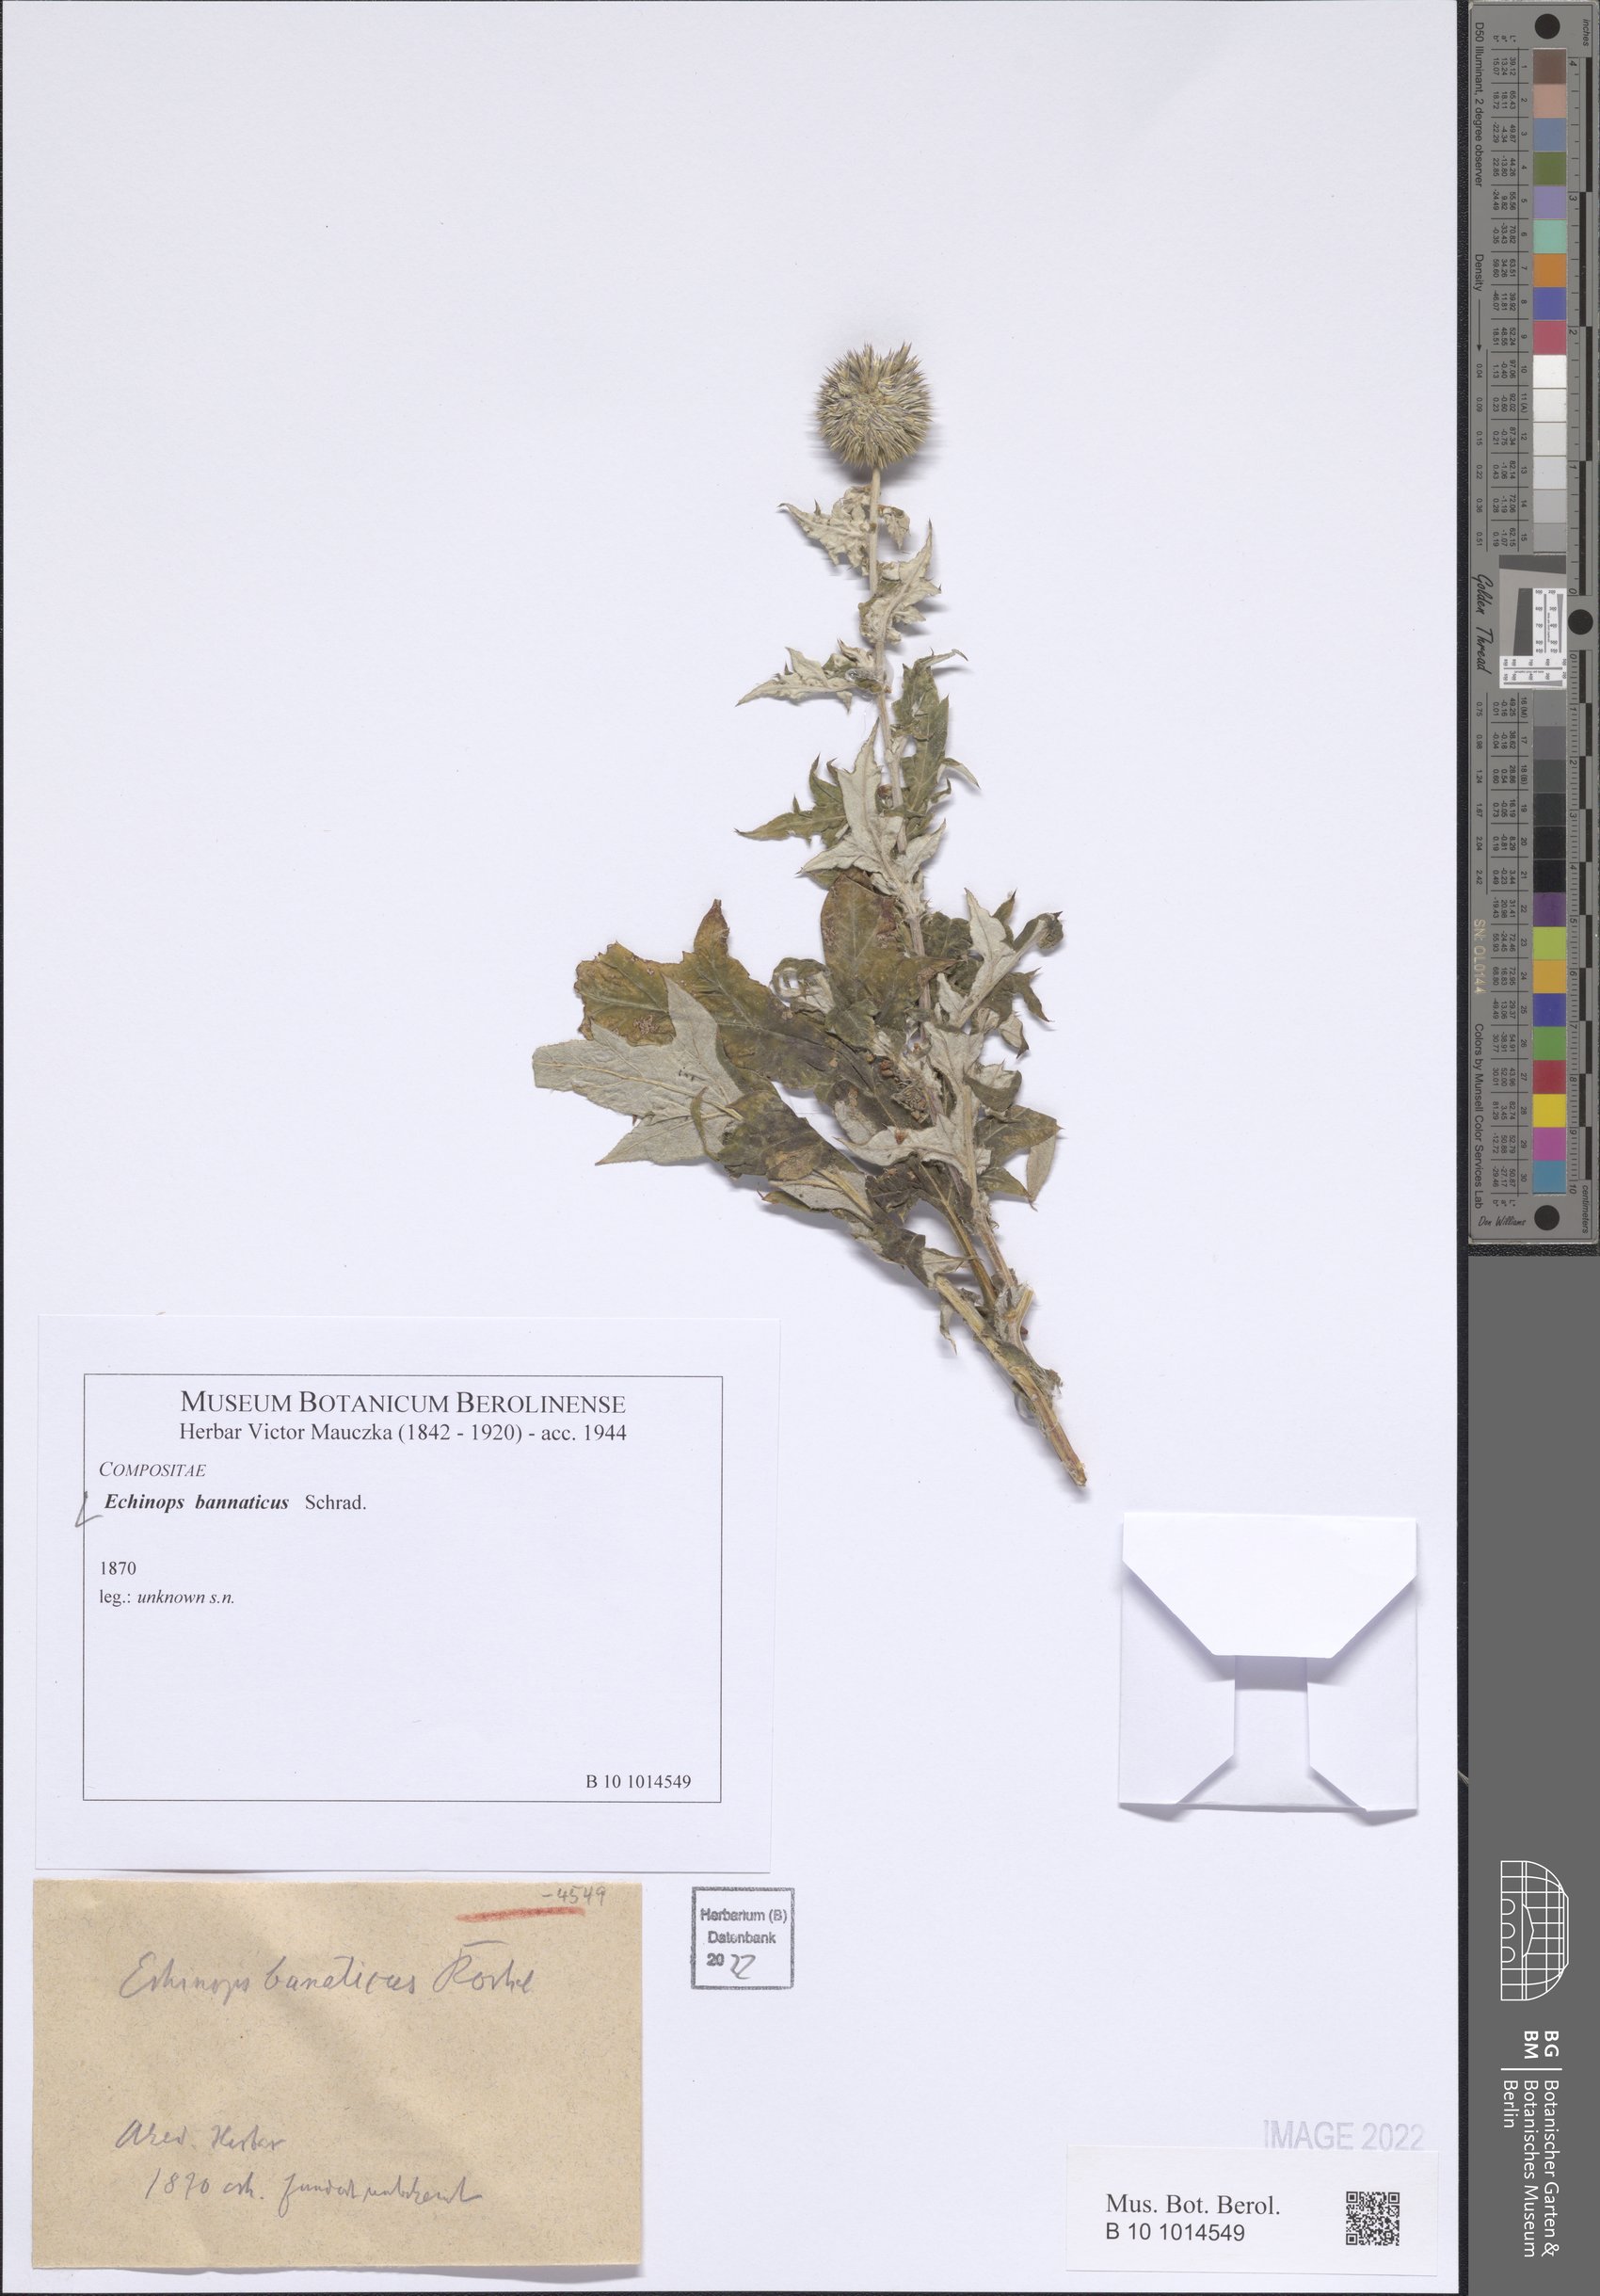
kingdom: Plantae
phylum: Tracheophyta
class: Magnoliopsida
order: Asterales
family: Asteraceae
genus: Echinops
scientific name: Echinops bannaticus
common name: Blue globe-thistle
